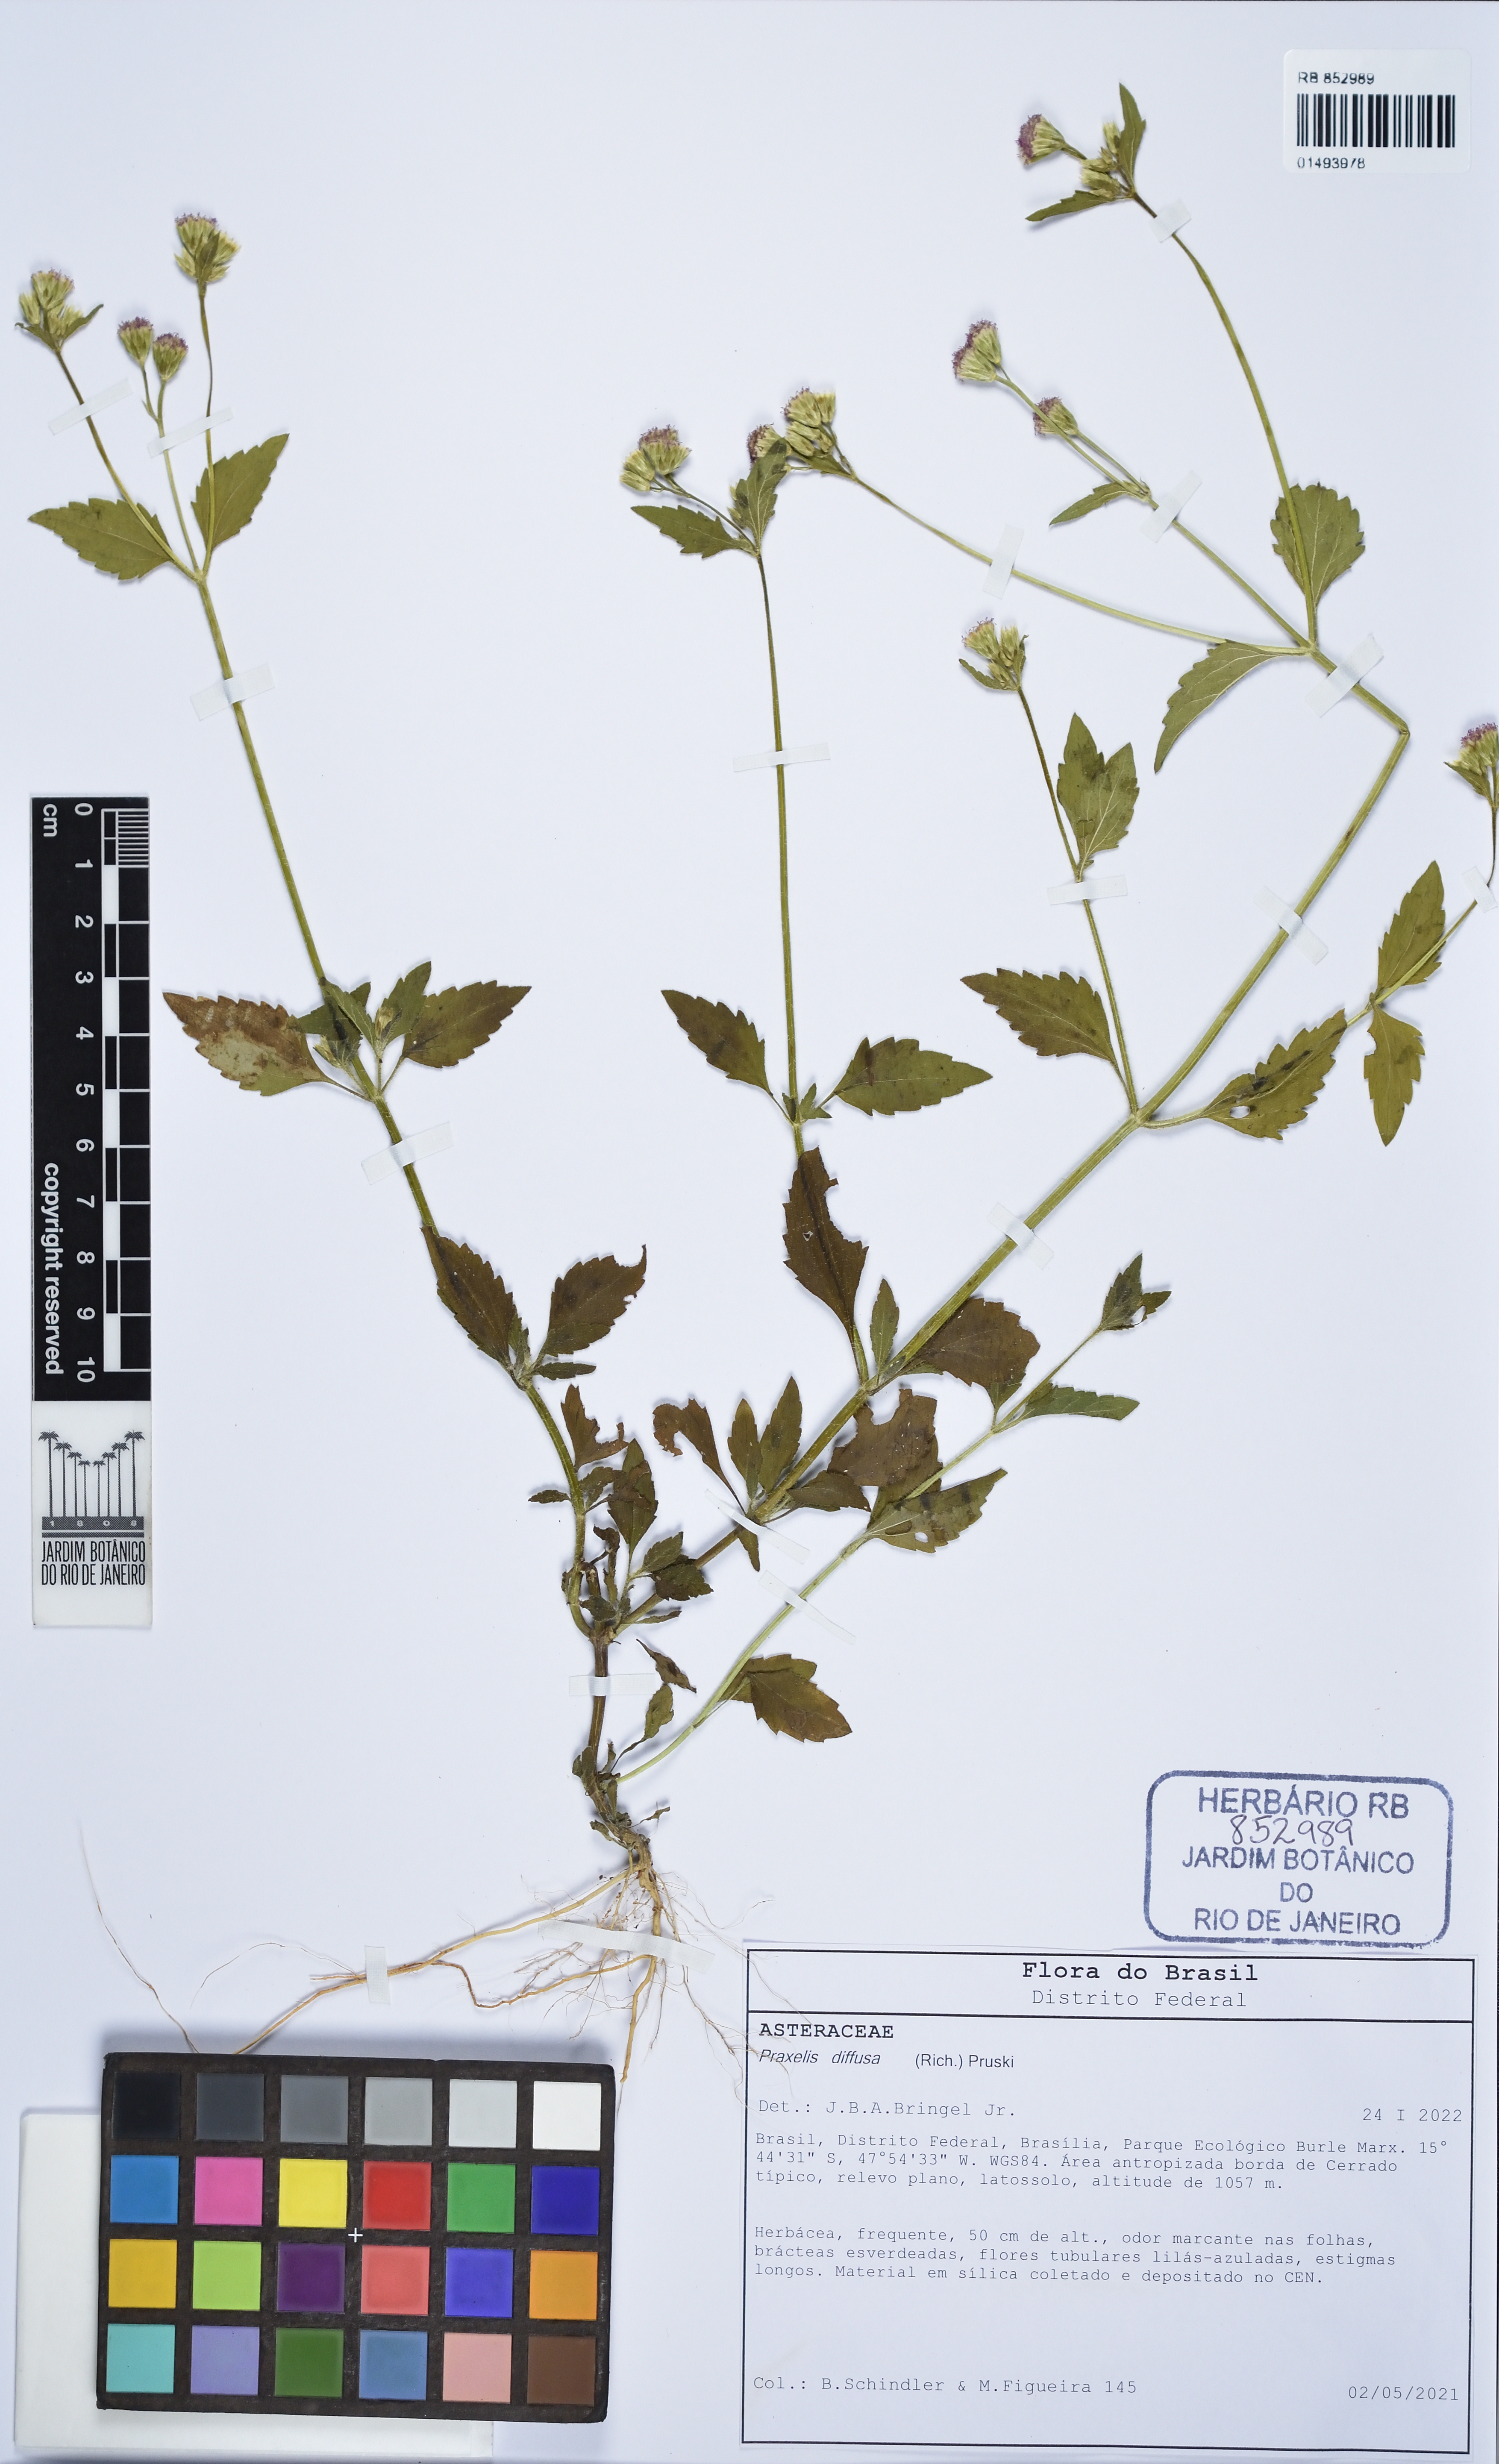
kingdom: Plantae
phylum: Tracheophyta
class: Magnoliopsida
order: Asterales
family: Asteraceae
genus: Praxelis
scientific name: Praxelis diffusa
